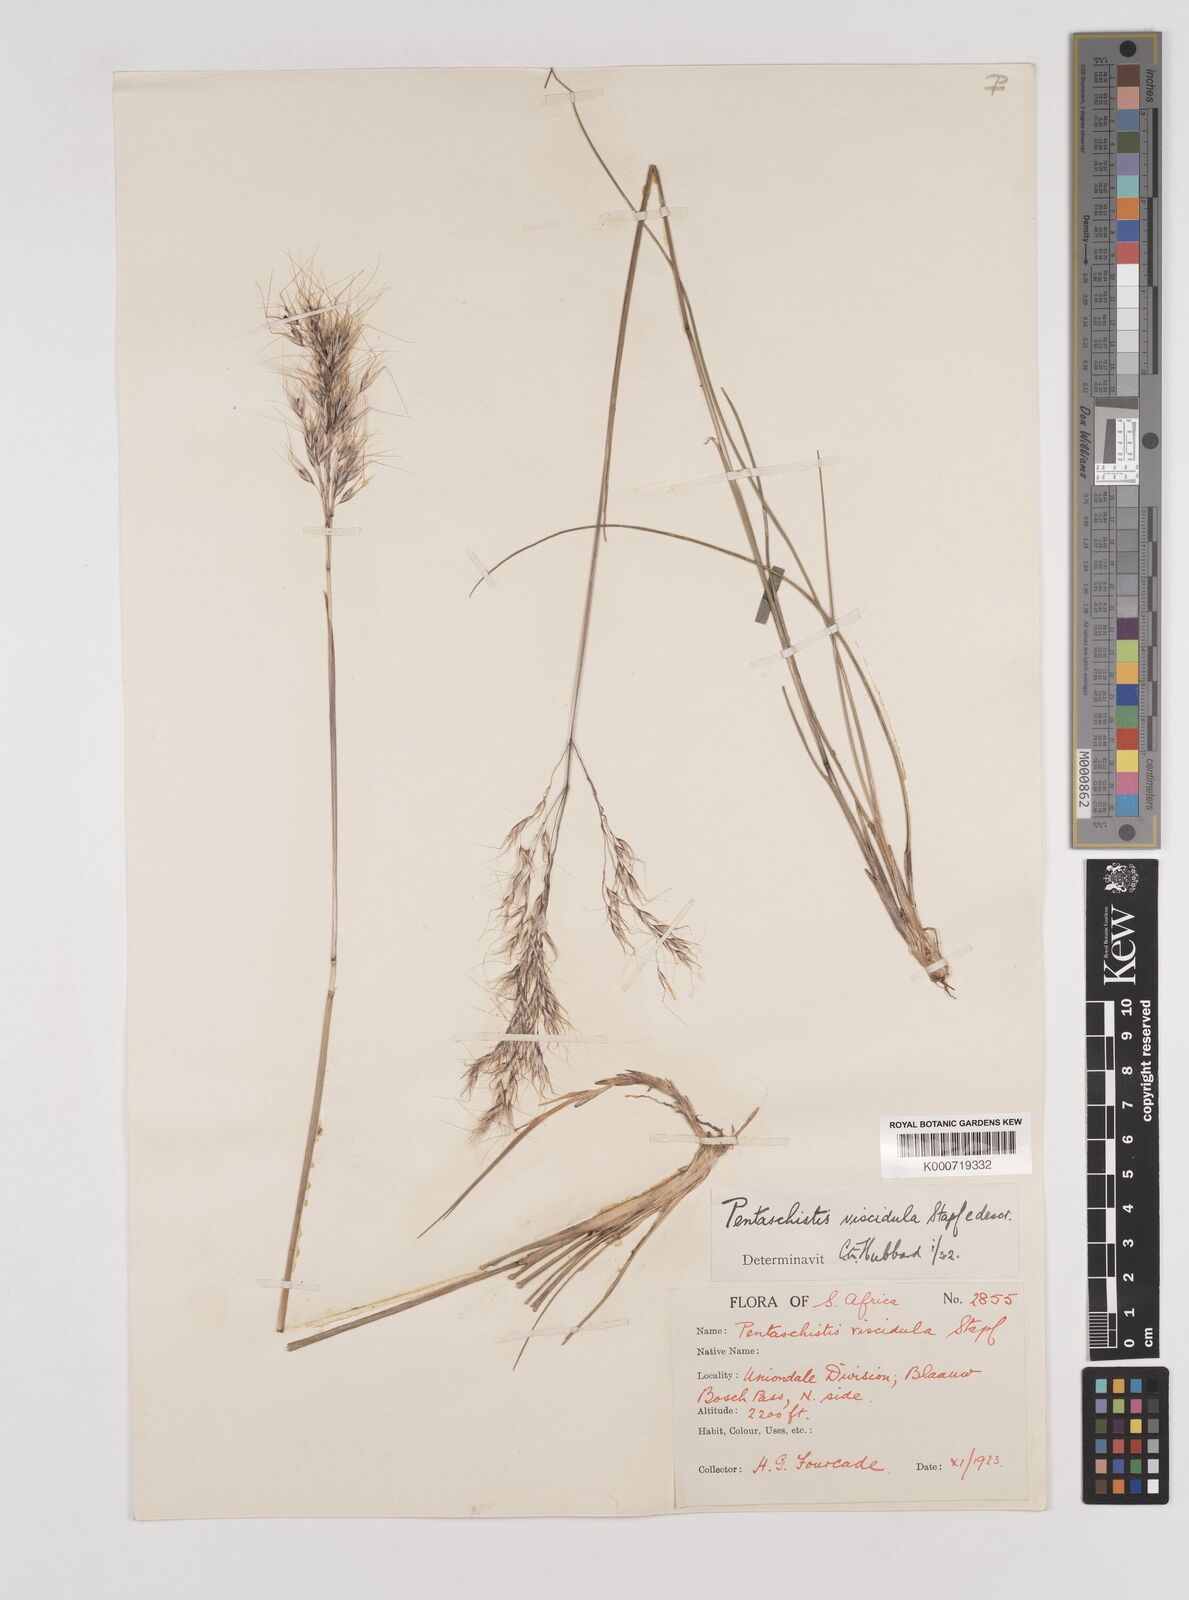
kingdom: Plantae
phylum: Tracheophyta
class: Liliopsida
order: Poales
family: Poaceae
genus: Pentameris
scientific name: Pentameris pallescens
